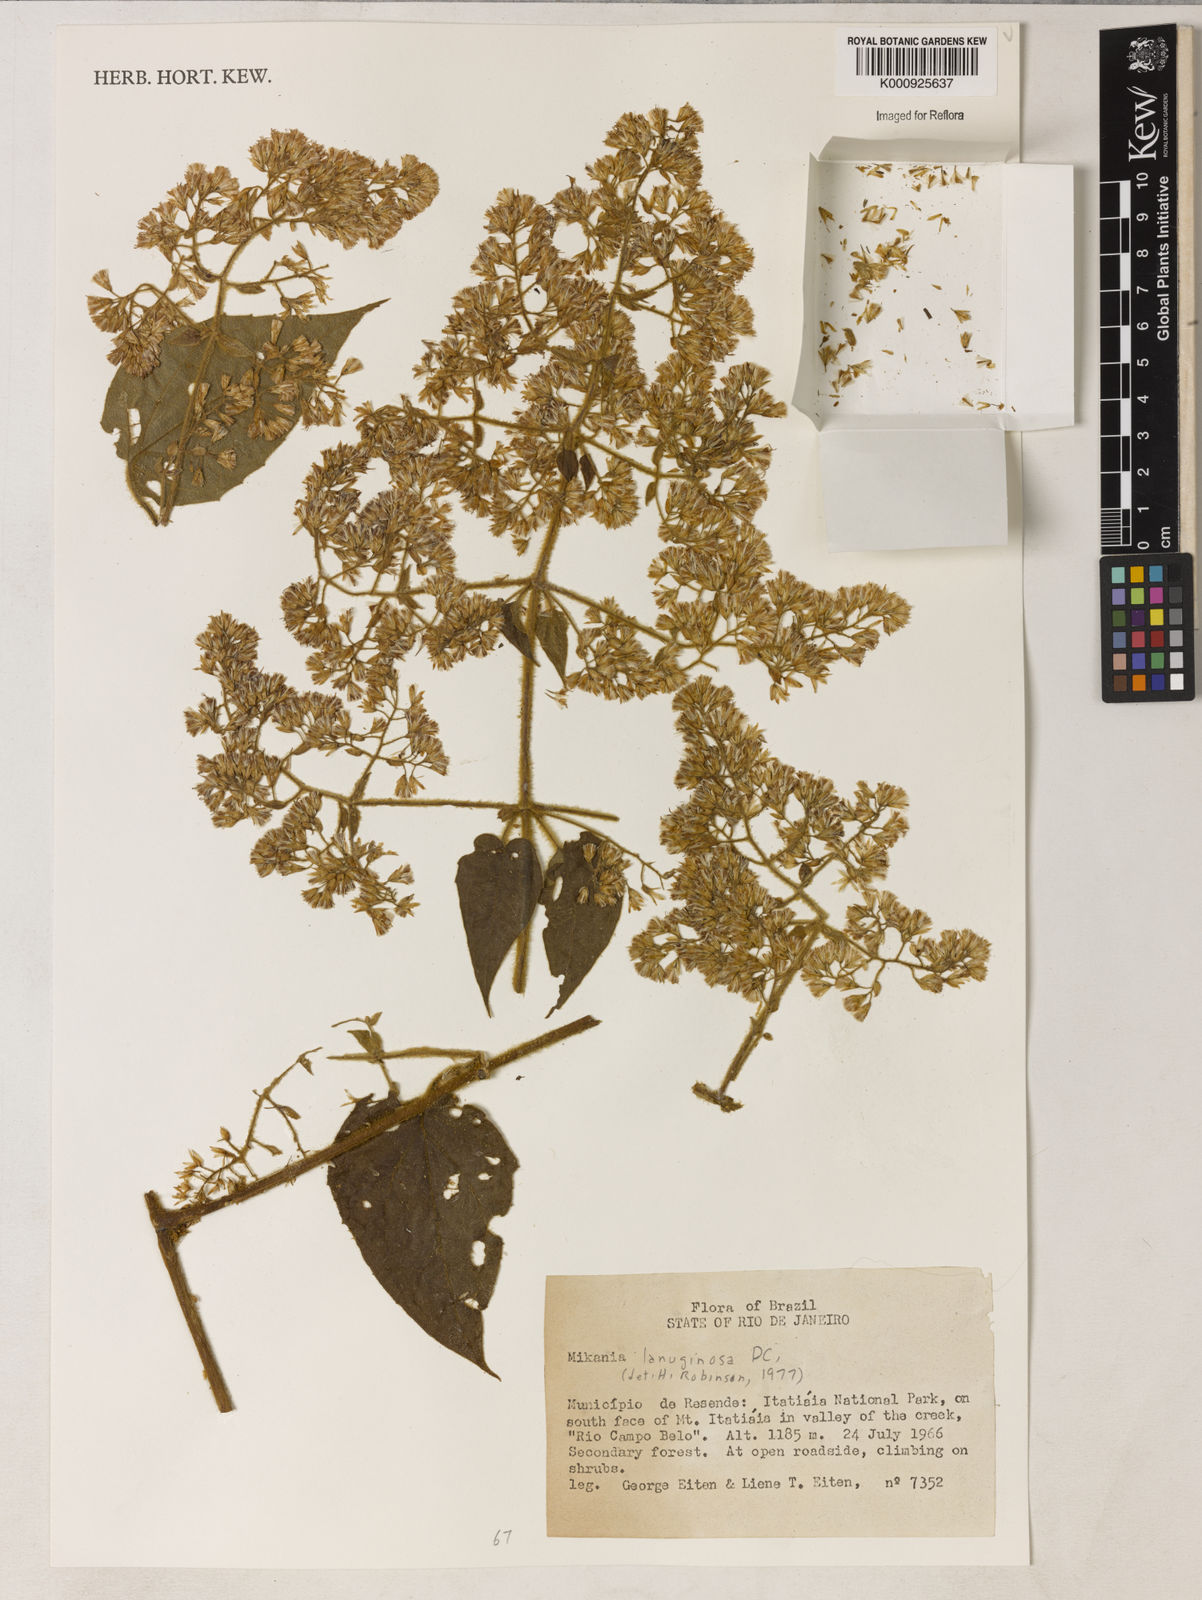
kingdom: Plantae
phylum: Tracheophyta
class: Magnoliopsida
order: Asterales
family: Asteraceae
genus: Mikania
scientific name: Mikania laevigata
